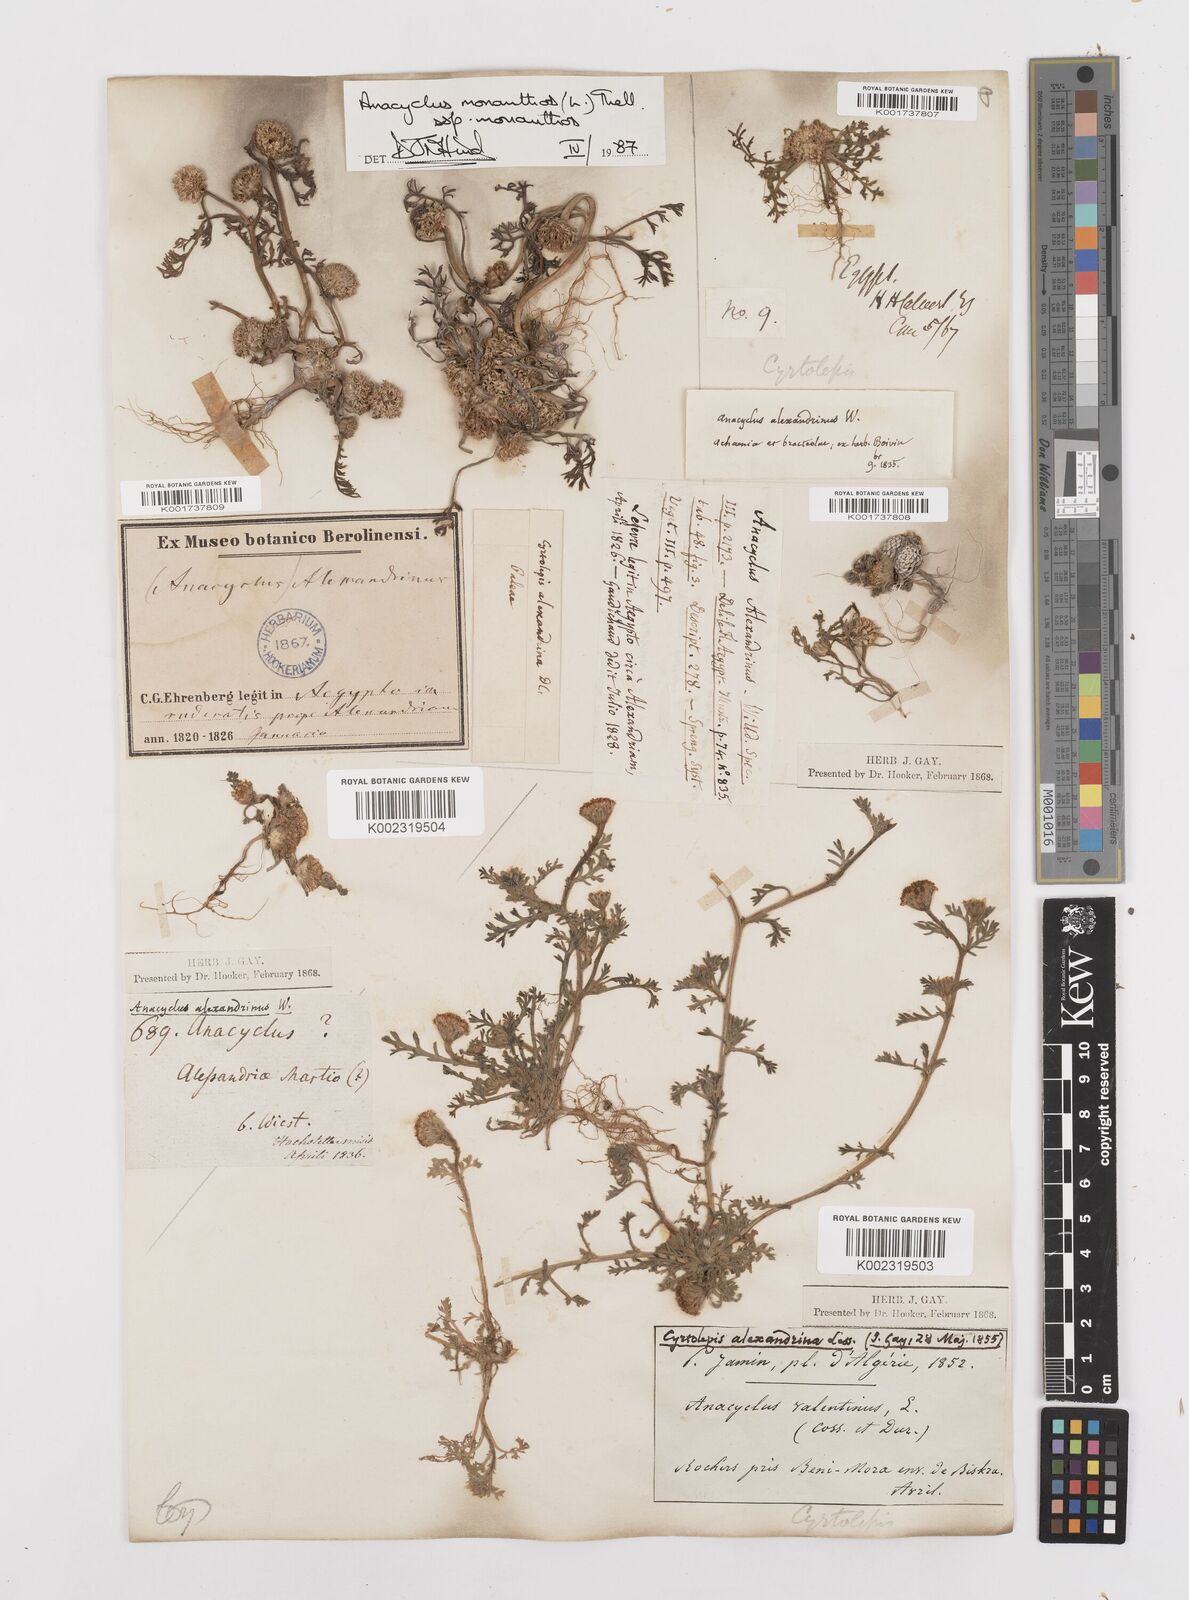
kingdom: Plantae
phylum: Tracheophyta
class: Magnoliopsida
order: Asterales
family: Asteraceae
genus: Anacyclus
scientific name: Anacyclus monanthos
